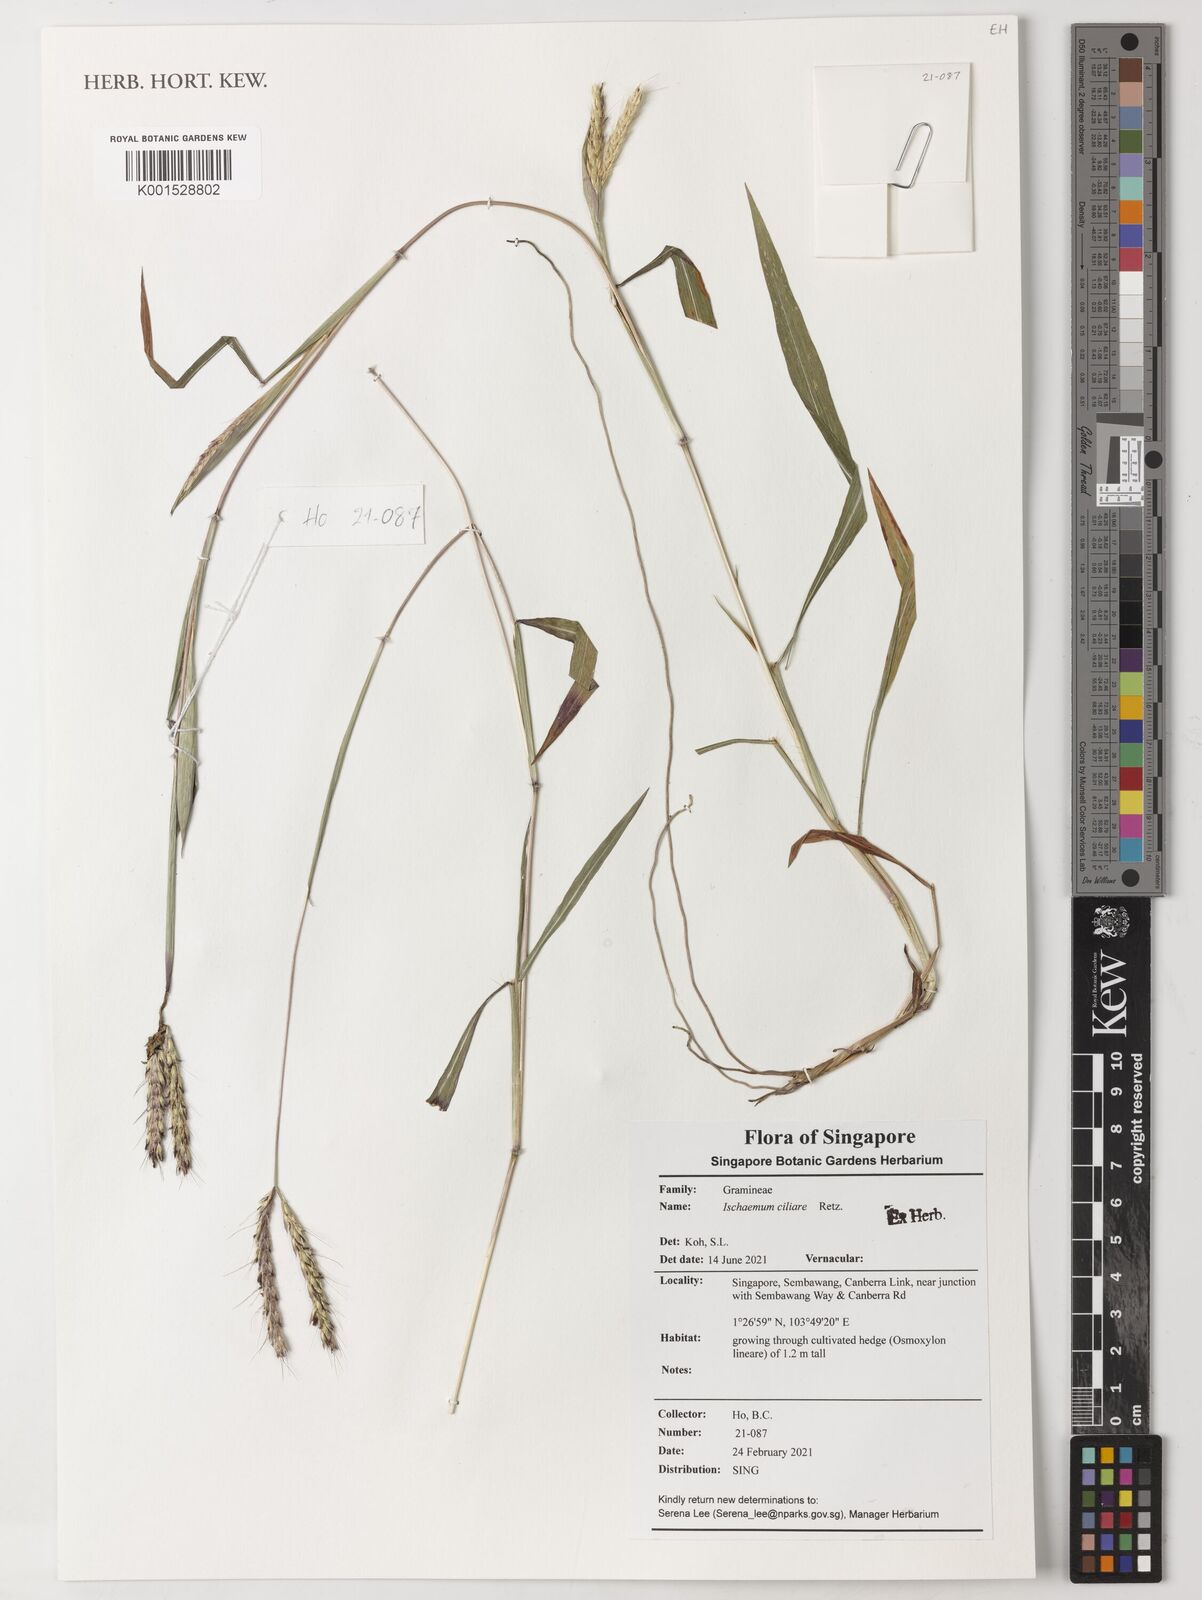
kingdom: Plantae
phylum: Tracheophyta
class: Liliopsida
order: Poales
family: Poaceae
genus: Ischaemum
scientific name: Ischaemum ciliare
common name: Grass
